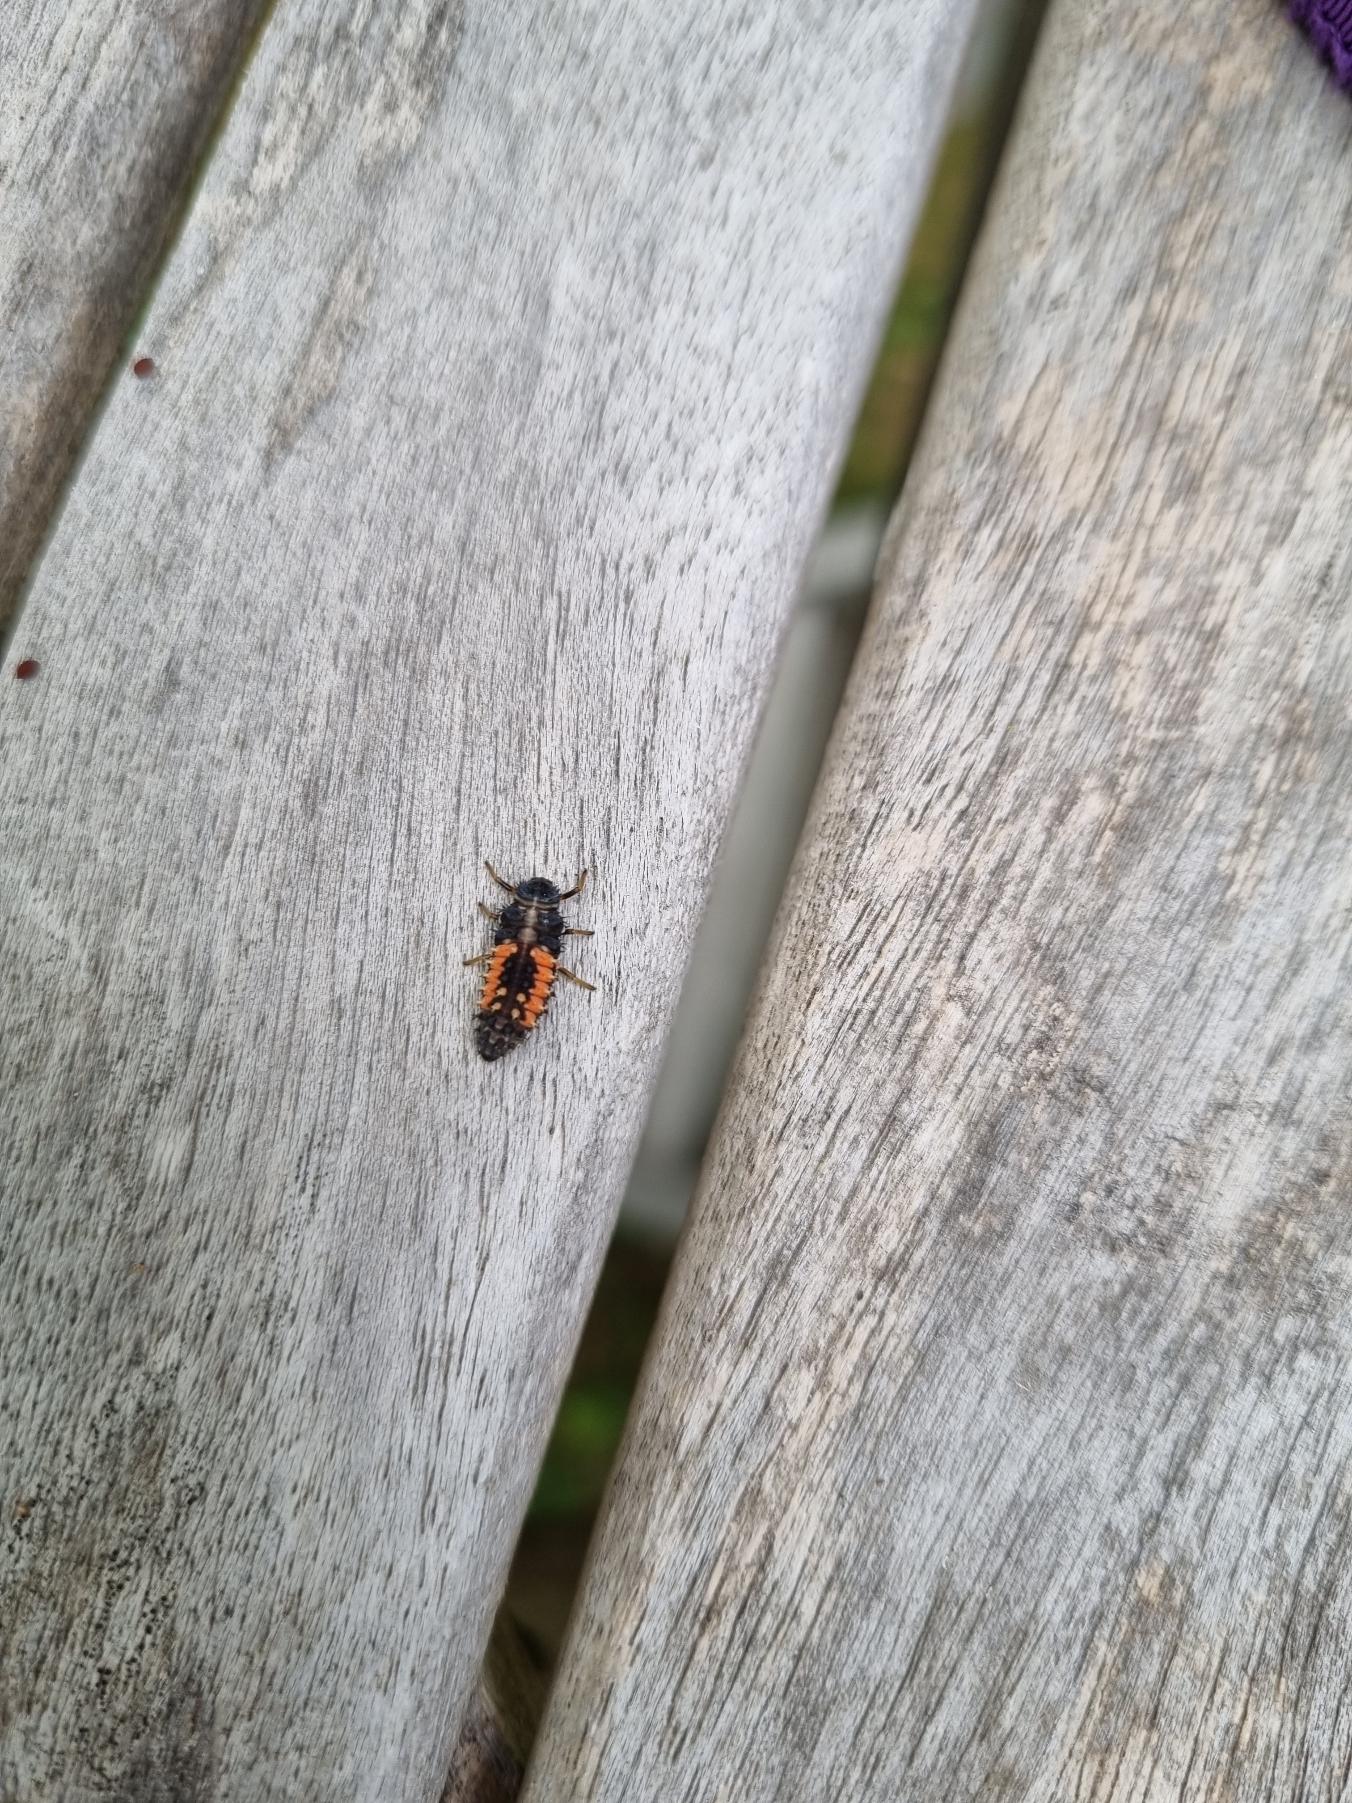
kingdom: Animalia
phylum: Arthropoda
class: Insecta
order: Coleoptera
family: Coccinellidae
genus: Harmonia
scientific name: Harmonia axyridis
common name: Harlekinmariehøne
